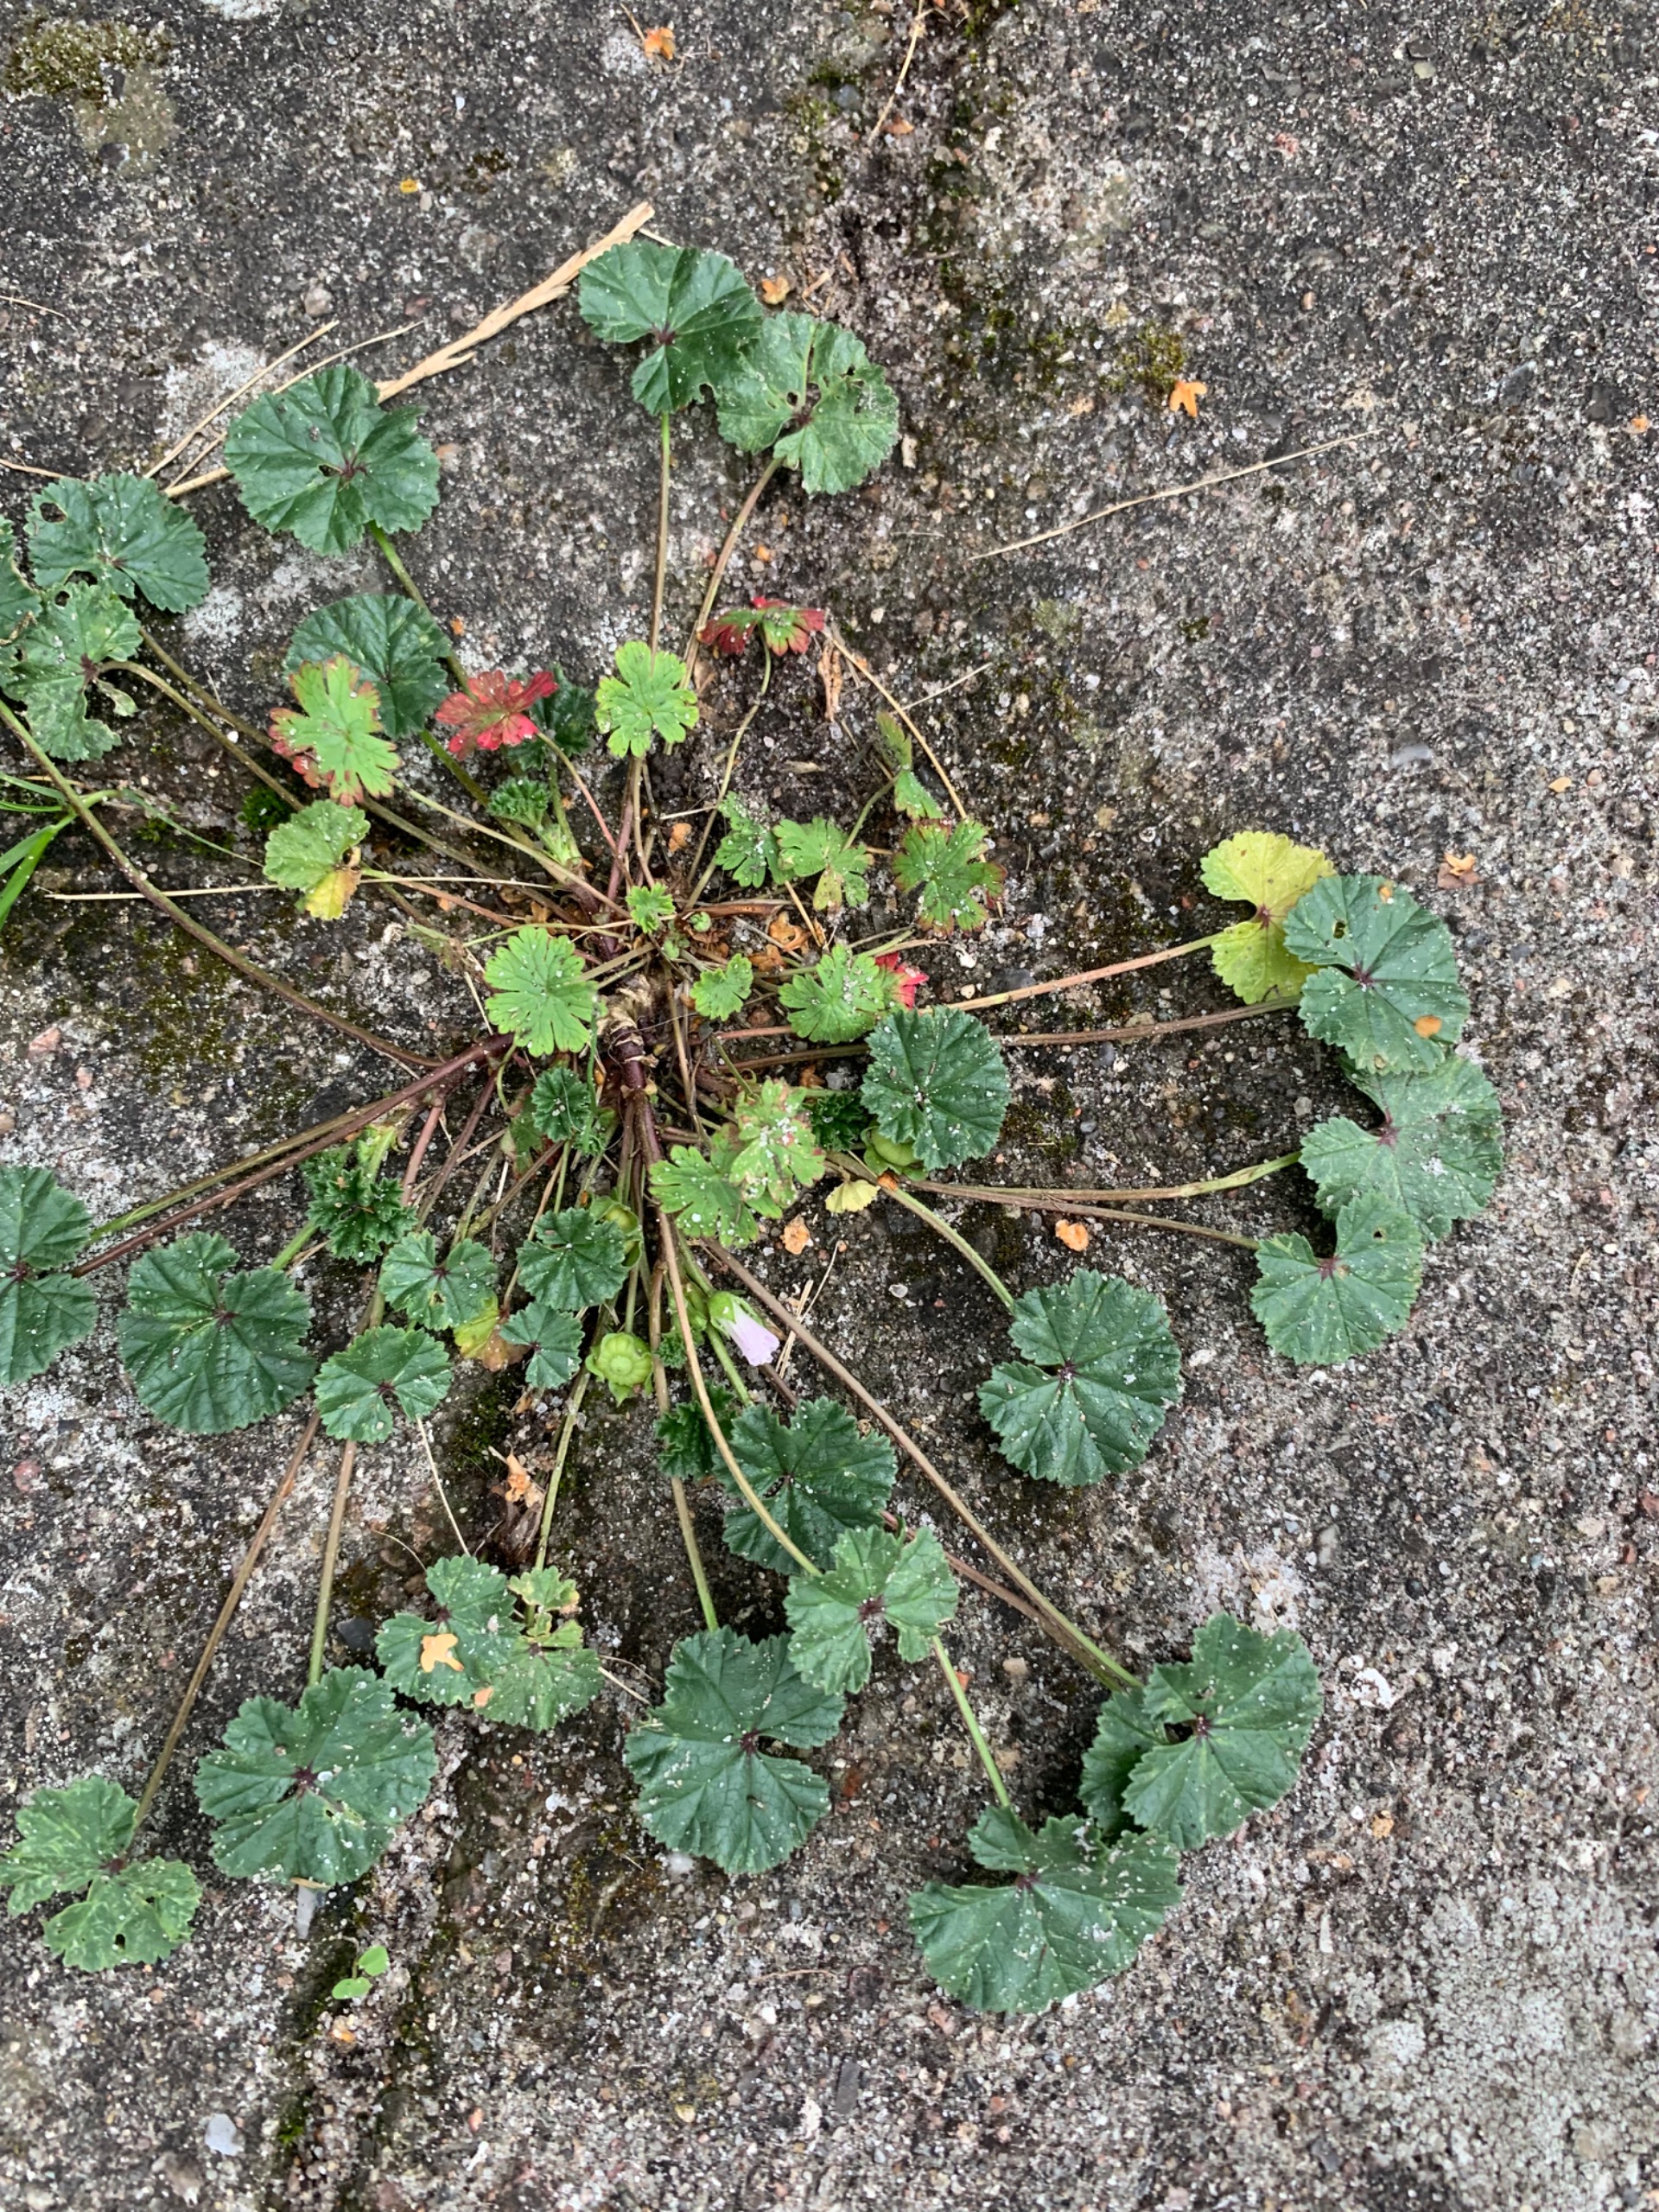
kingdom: Plantae
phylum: Tracheophyta
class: Magnoliopsida
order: Malvales
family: Malvaceae
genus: Malva
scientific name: Malva neglecta
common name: Rundbladet katost
